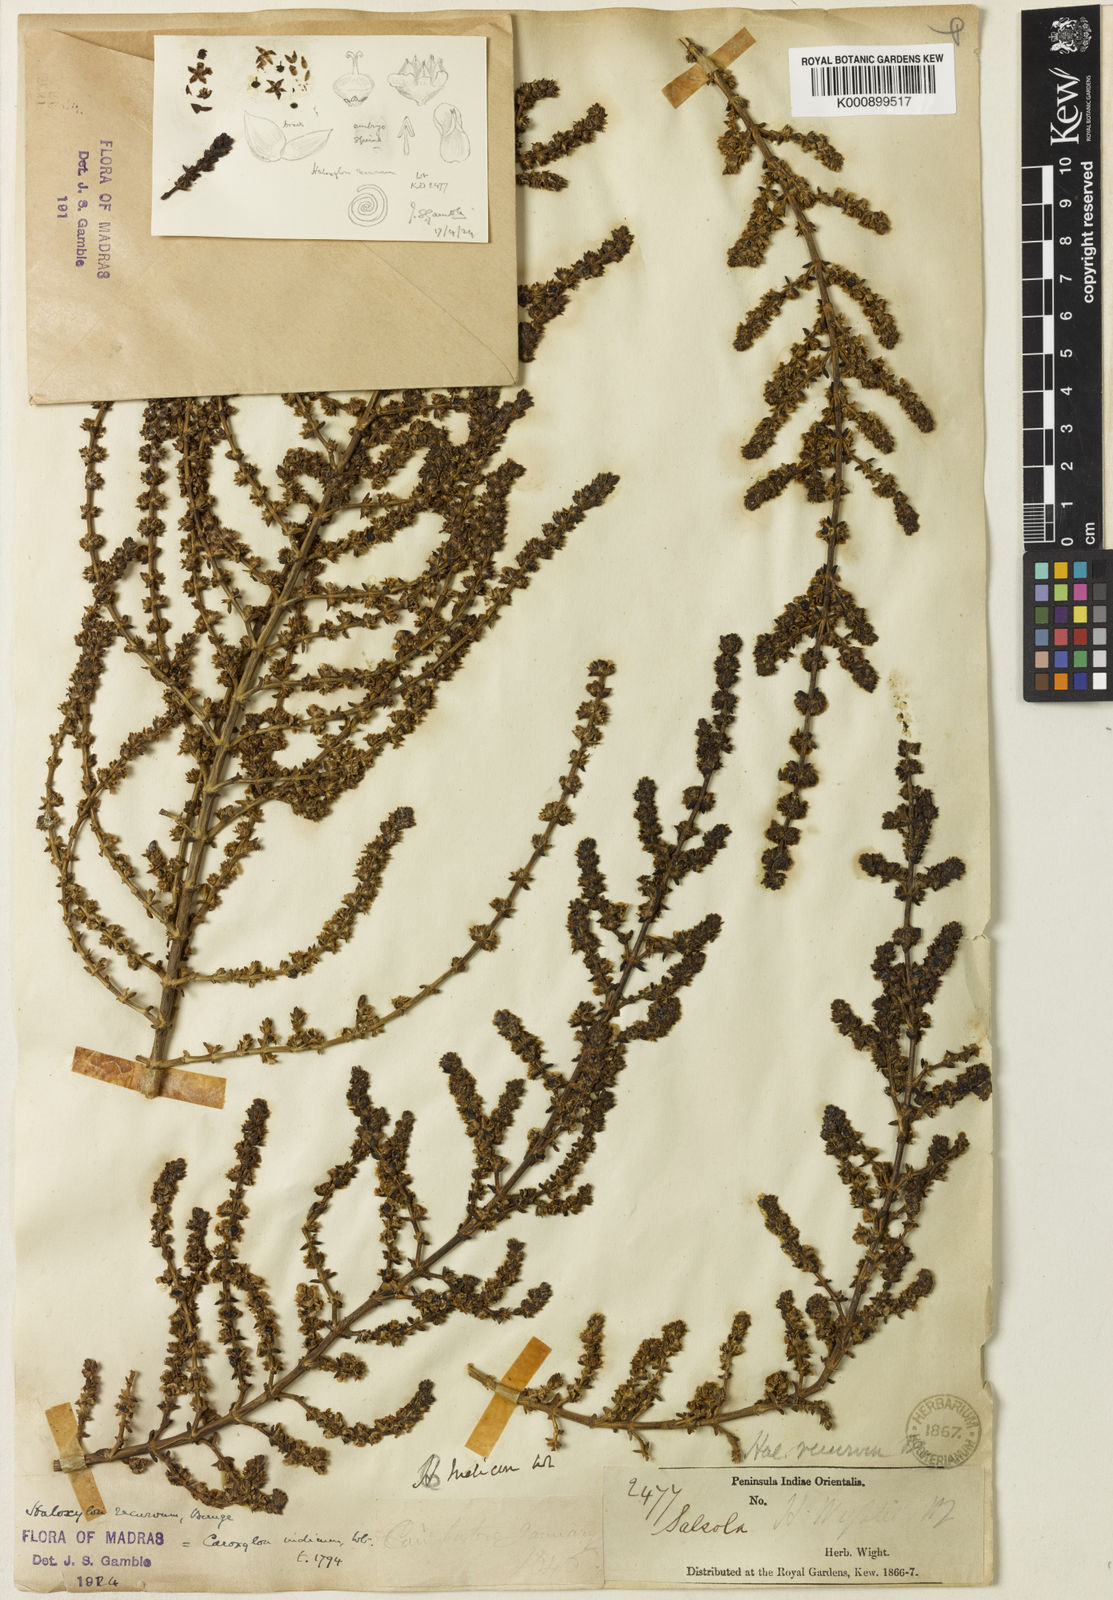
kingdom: Plantae
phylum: Tracheophyta
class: Magnoliopsida
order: Caryophyllales
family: Amaranthaceae
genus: Soda
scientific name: Soda stocksii
